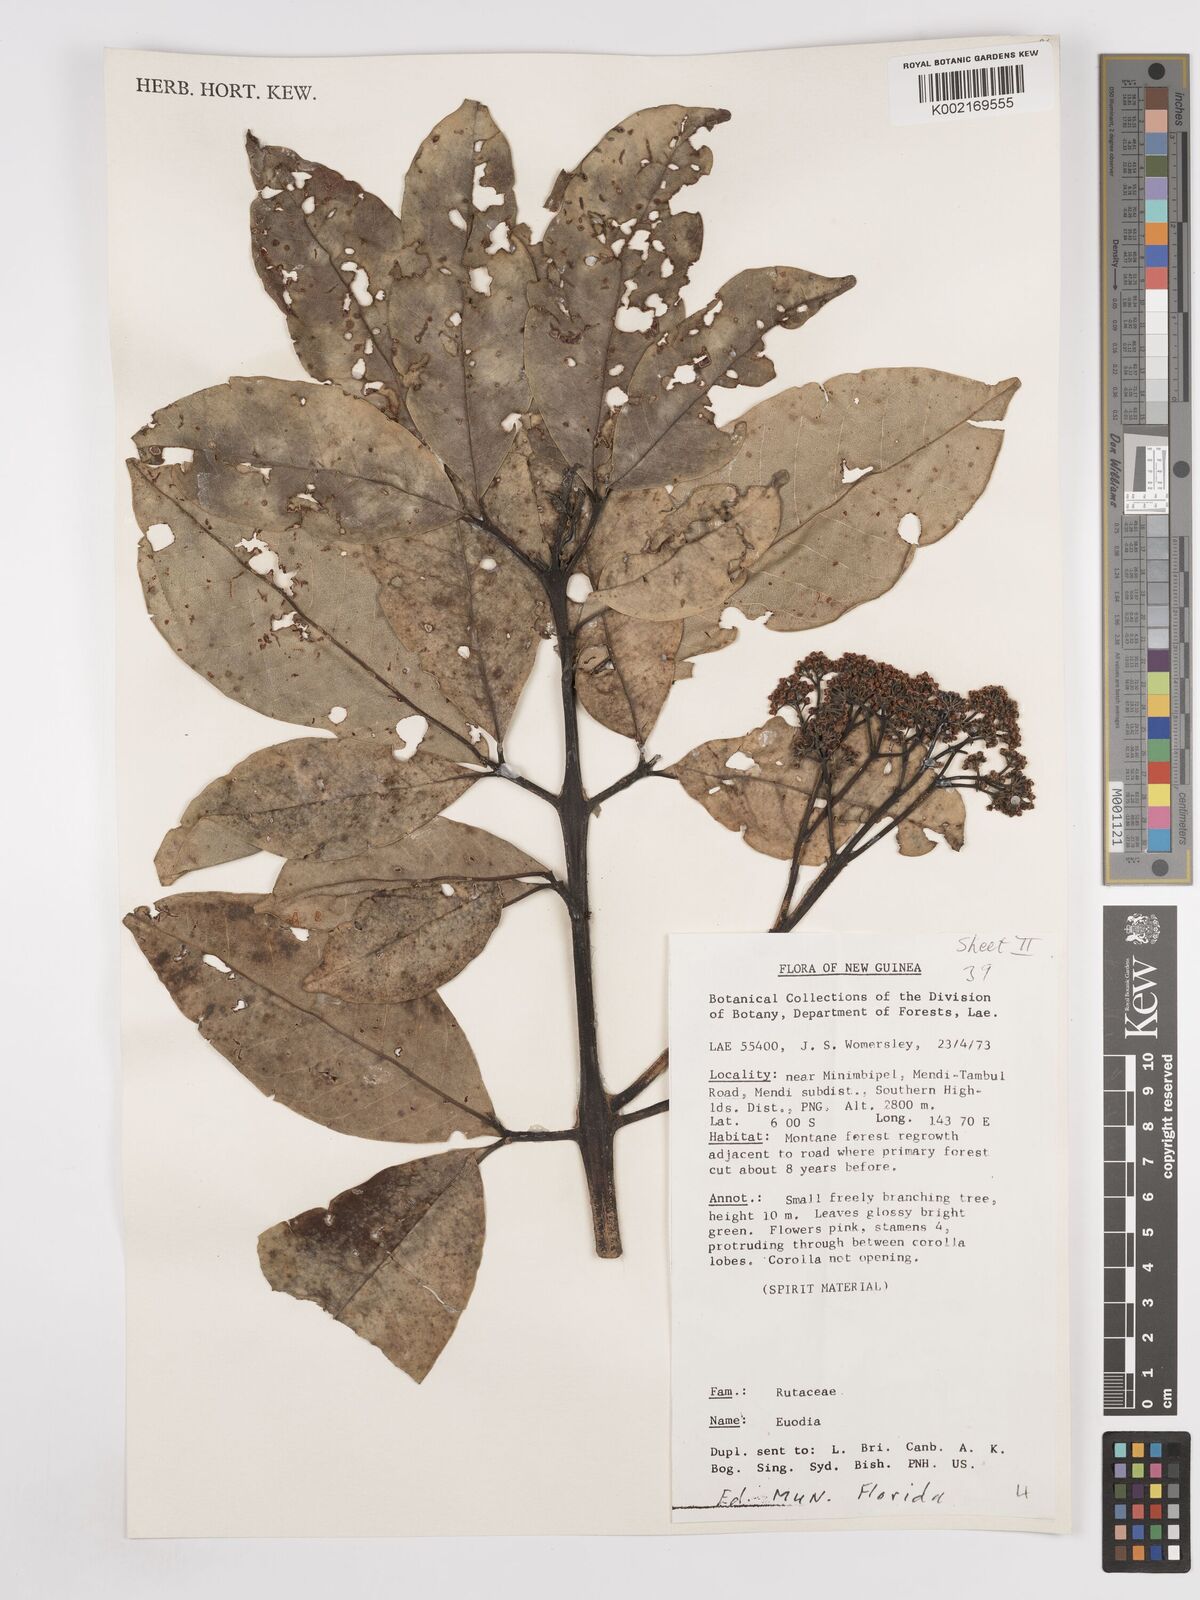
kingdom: Plantae
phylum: Tracheophyta
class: Magnoliopsida
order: Sapindales
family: Rutaceae
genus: Euodia
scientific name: Euodia
